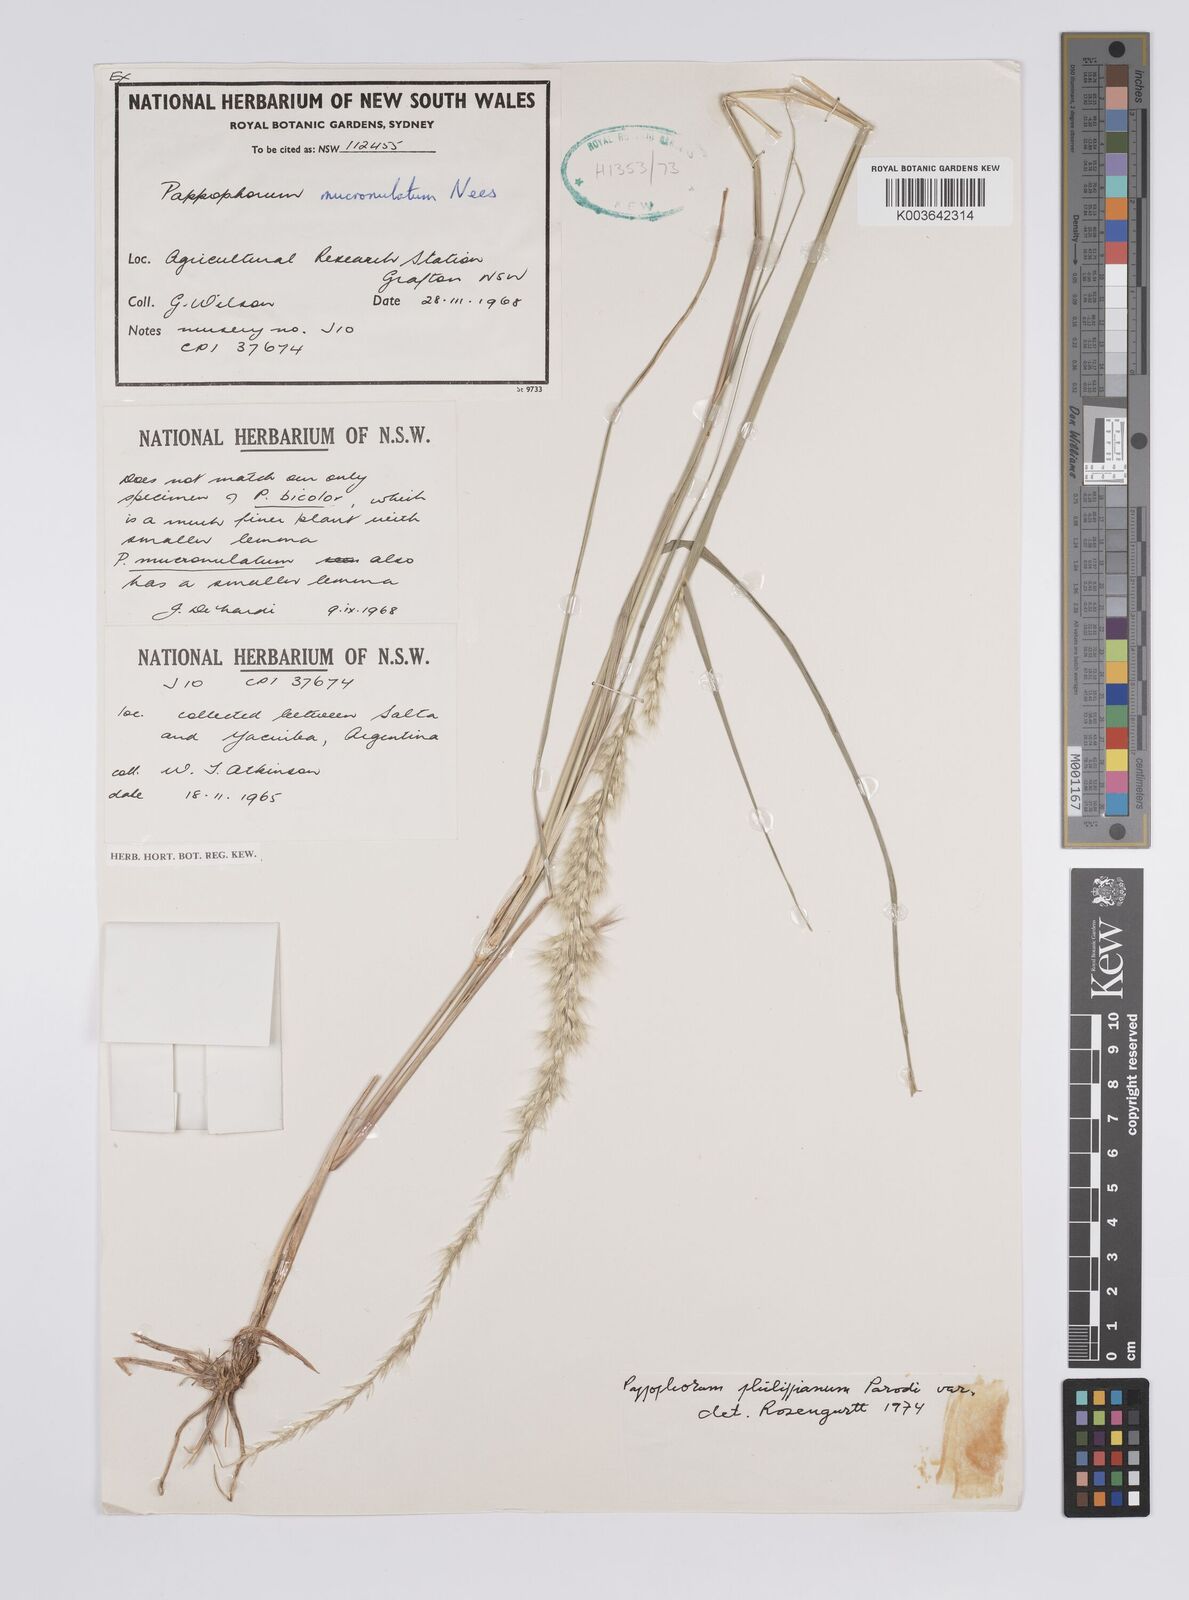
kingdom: Plantae
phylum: Tracheophyta
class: Liliopsida
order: Poales
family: Poaceae
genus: Pappophorum
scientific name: Pappophorum krapovickasii
